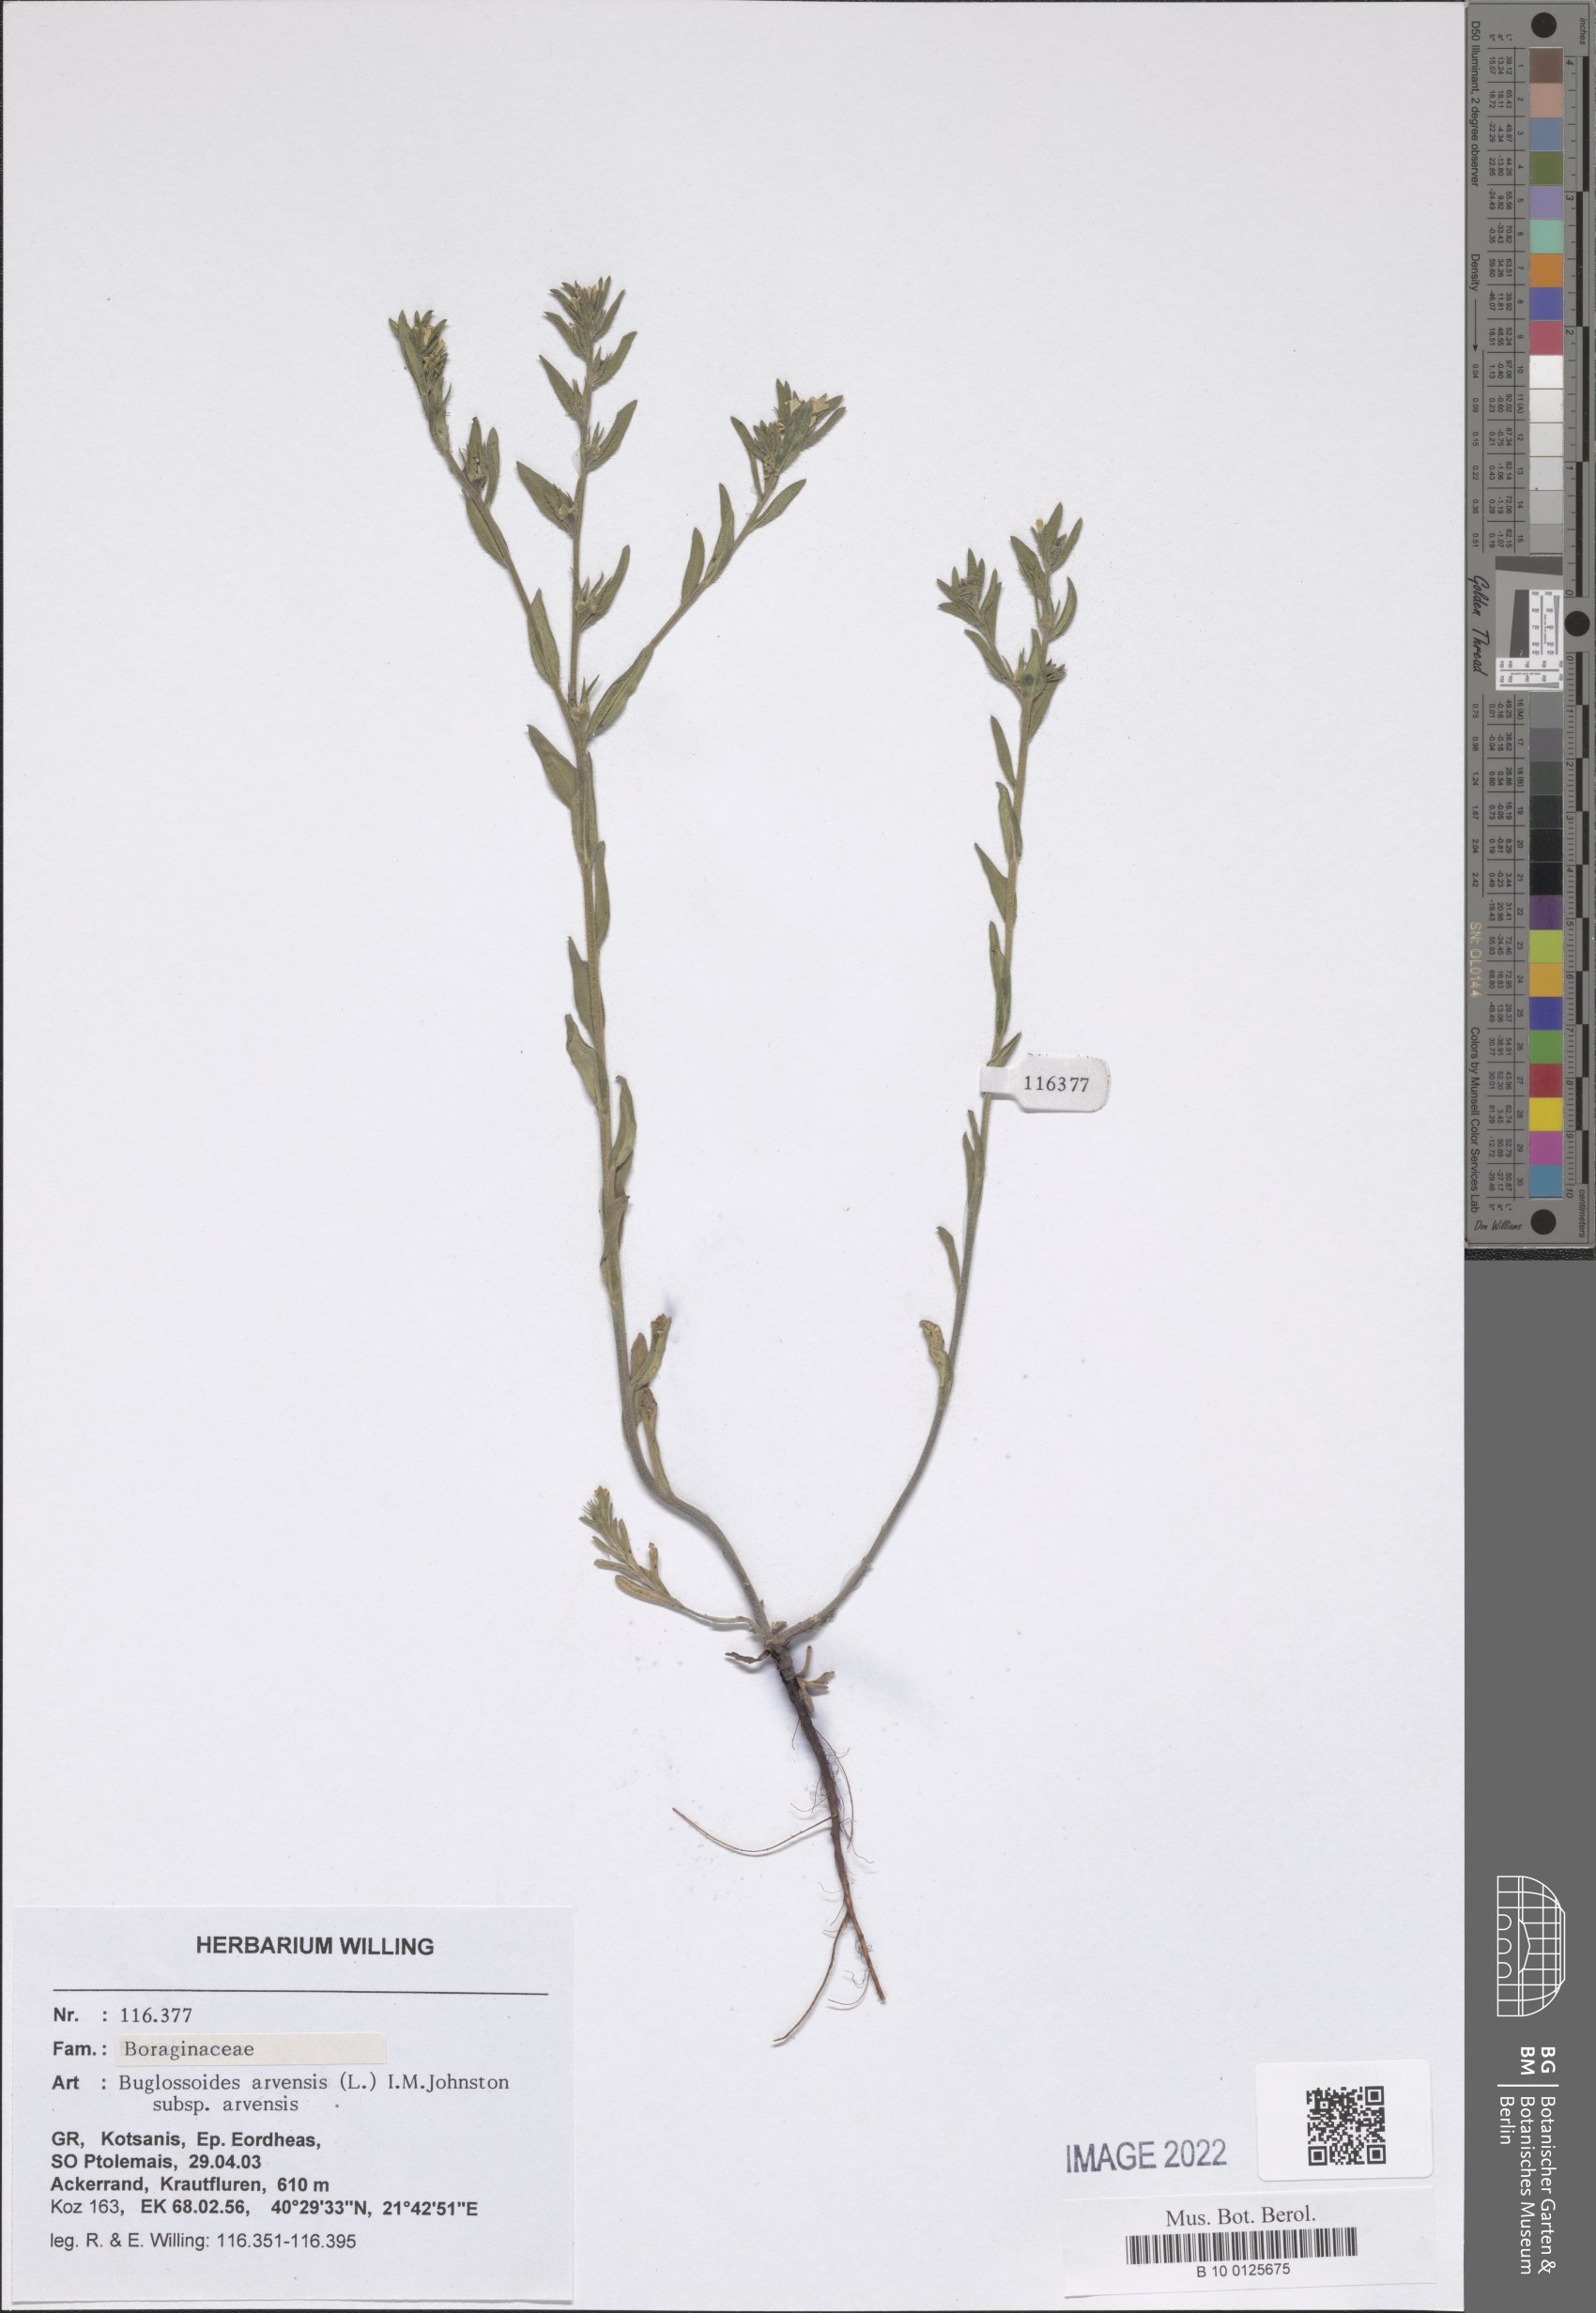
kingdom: Plantae
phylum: Tracheophyta
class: Magnoliopsida
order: Boraginales
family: Boraginaceae
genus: Buglossoides
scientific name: Buglossoides arvensis
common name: Corn gromwell
